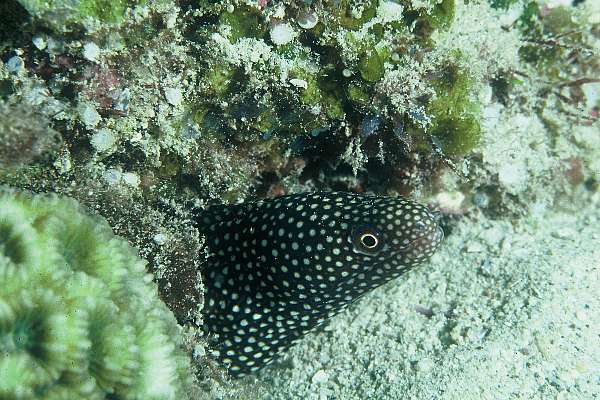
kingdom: Animalia
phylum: Chordata
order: Anguilliformes
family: Muraenidae
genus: Gymnothorax
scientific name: Gymnothorax meleagris
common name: Guineafowl moray
